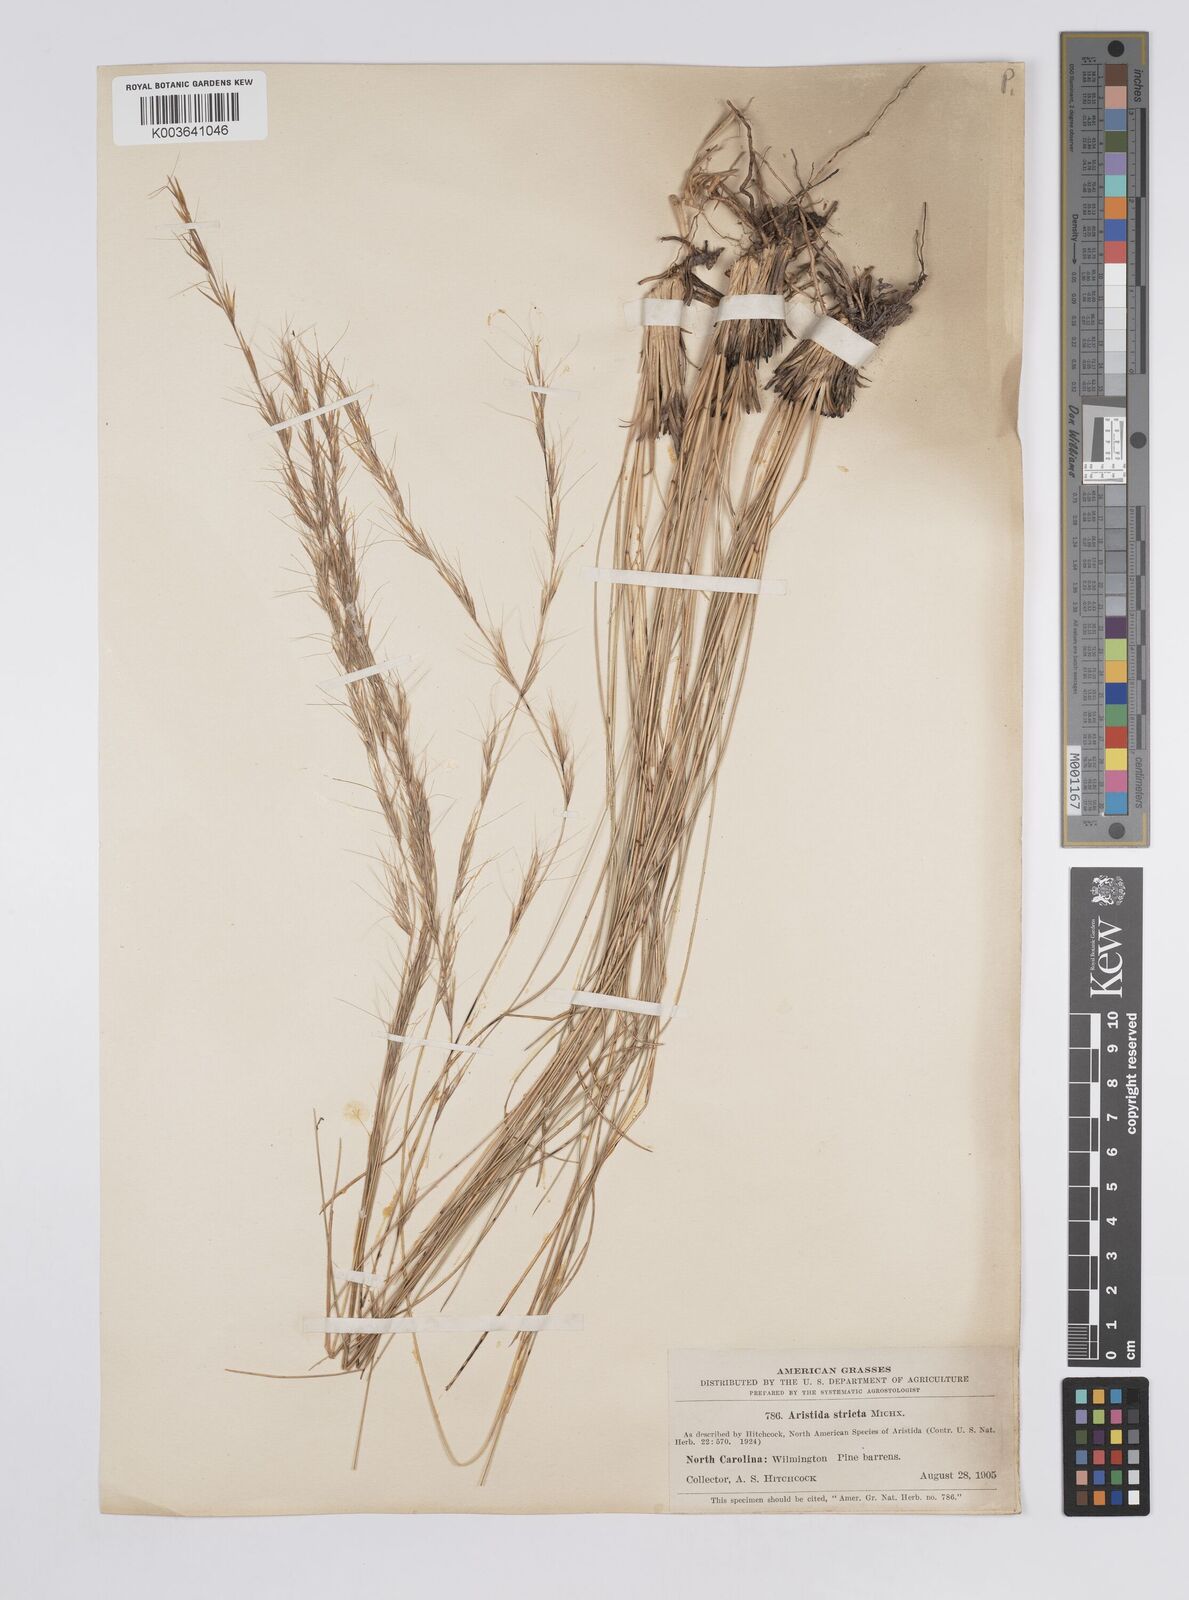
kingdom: Plantae
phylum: Tracheophyta
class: Liliopsida
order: Poales
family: Poaceae
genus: Aristida
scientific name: Aristida stricta
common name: Pineland three-awn
